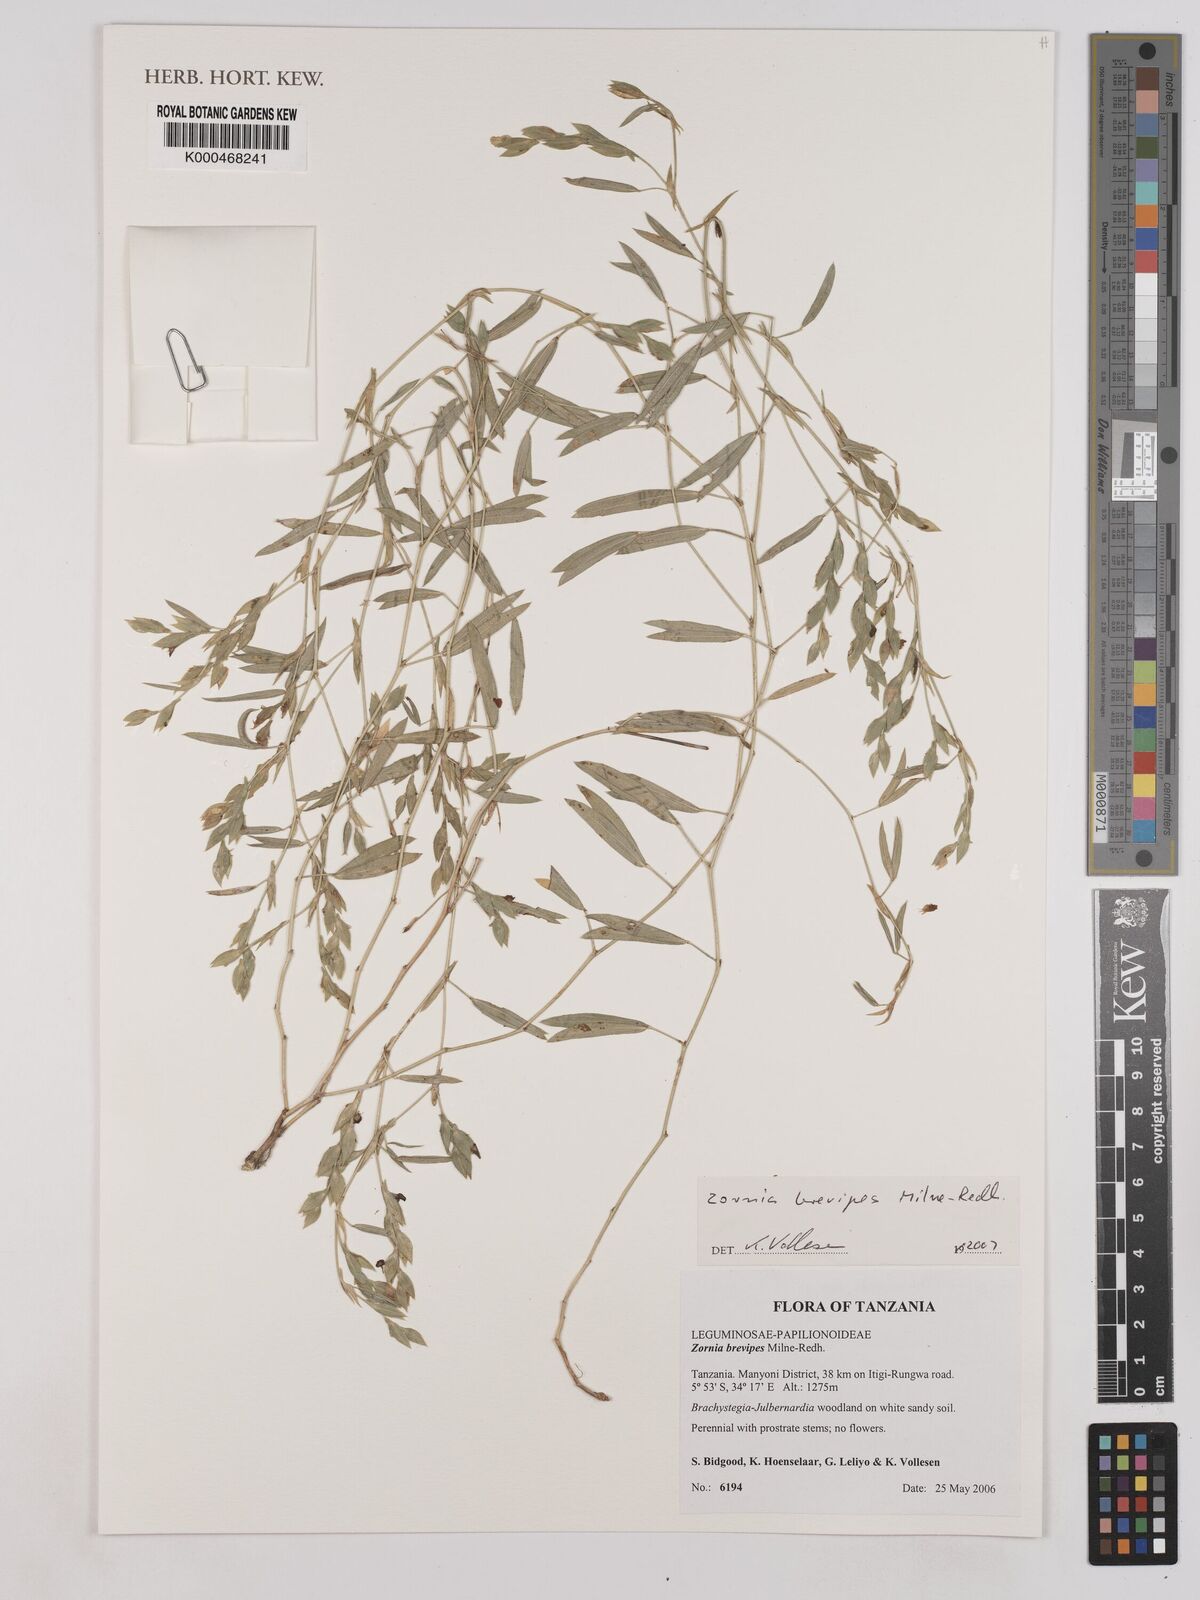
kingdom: Plantae
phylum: Tracheophyta
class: Magnoliopsida
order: Fabales
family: Fabaceae
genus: Zornia
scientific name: Zornia brevipes
